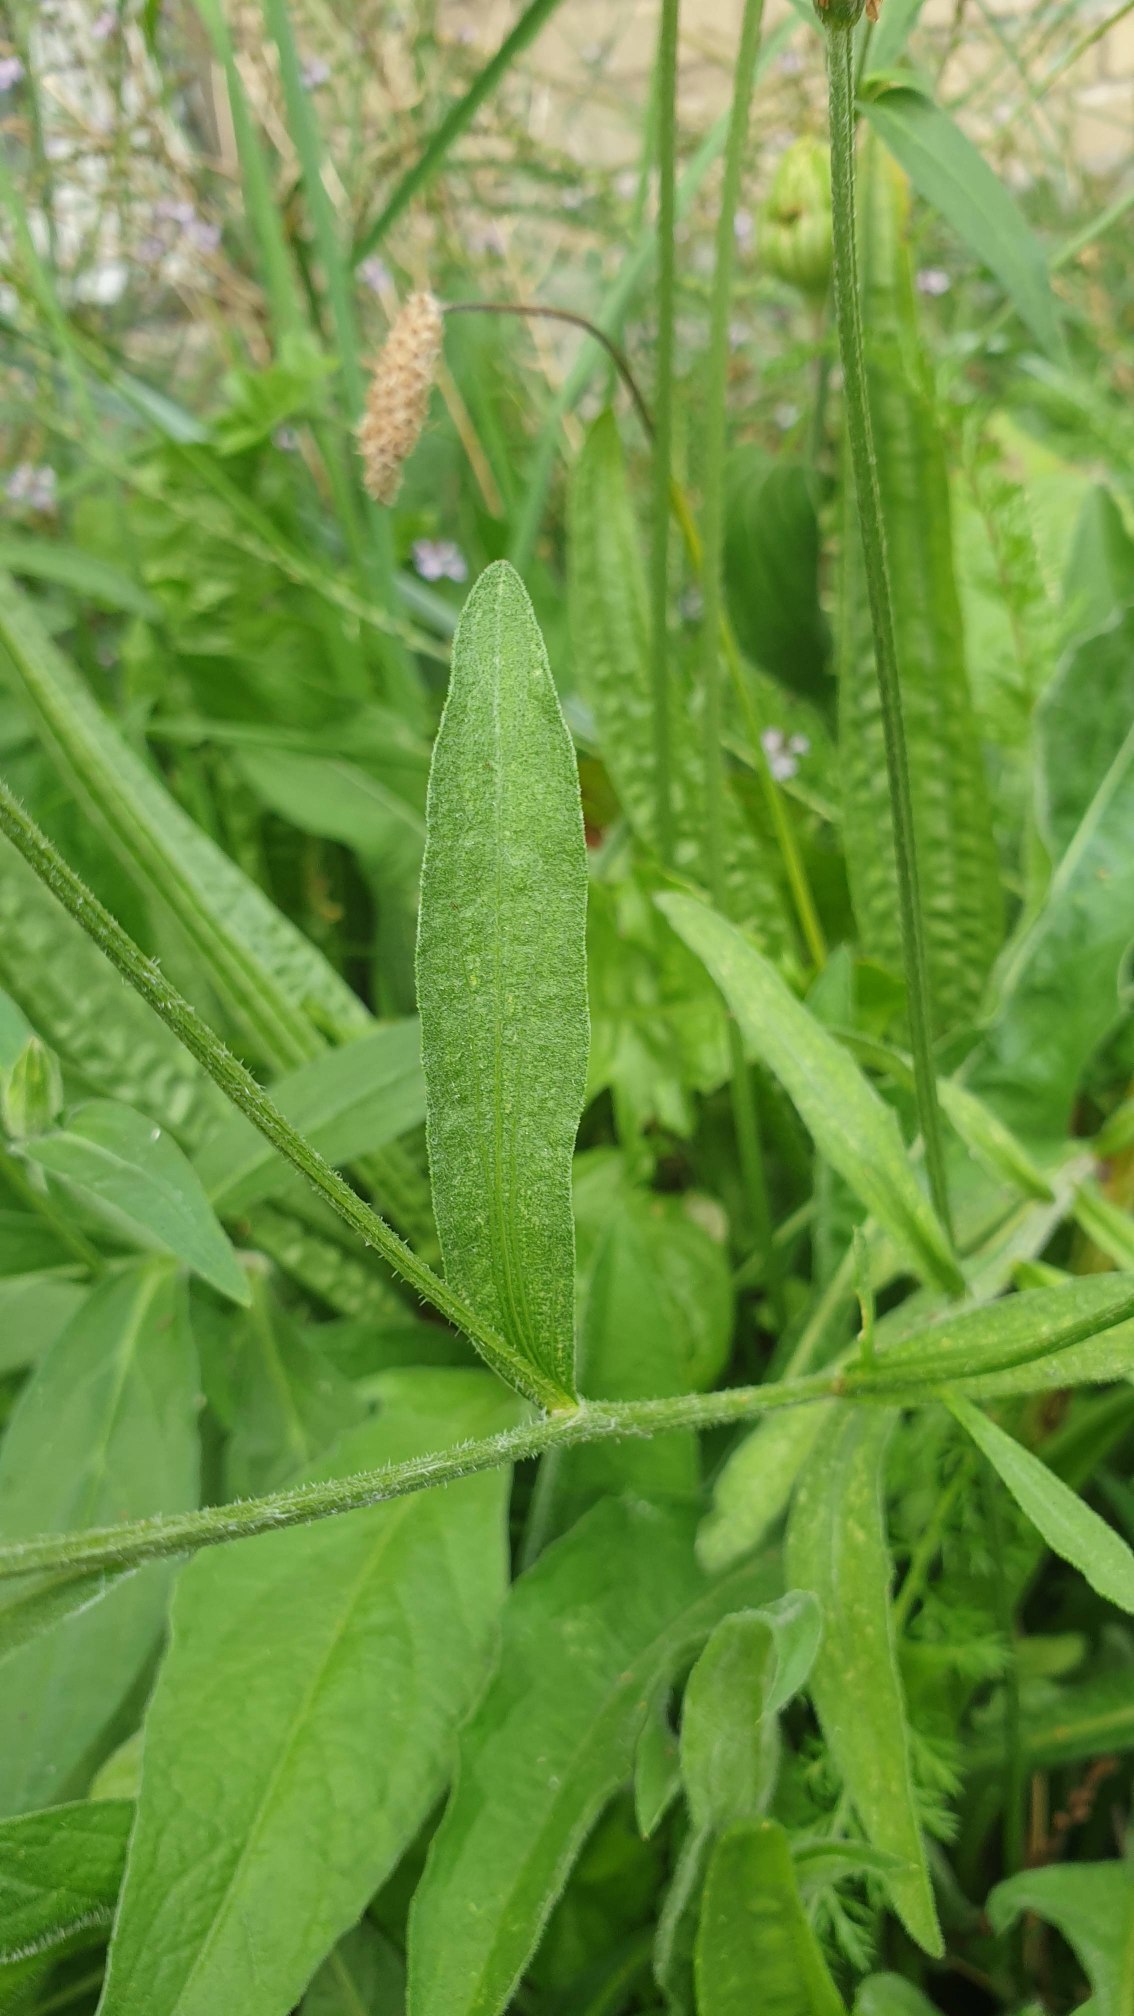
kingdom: Plantae
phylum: Tracheophyta
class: Magnoliopsida
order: Asterales
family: Asteraceae
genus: Centaurea
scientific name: Centaurea jacea
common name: Almindelig knopurt
